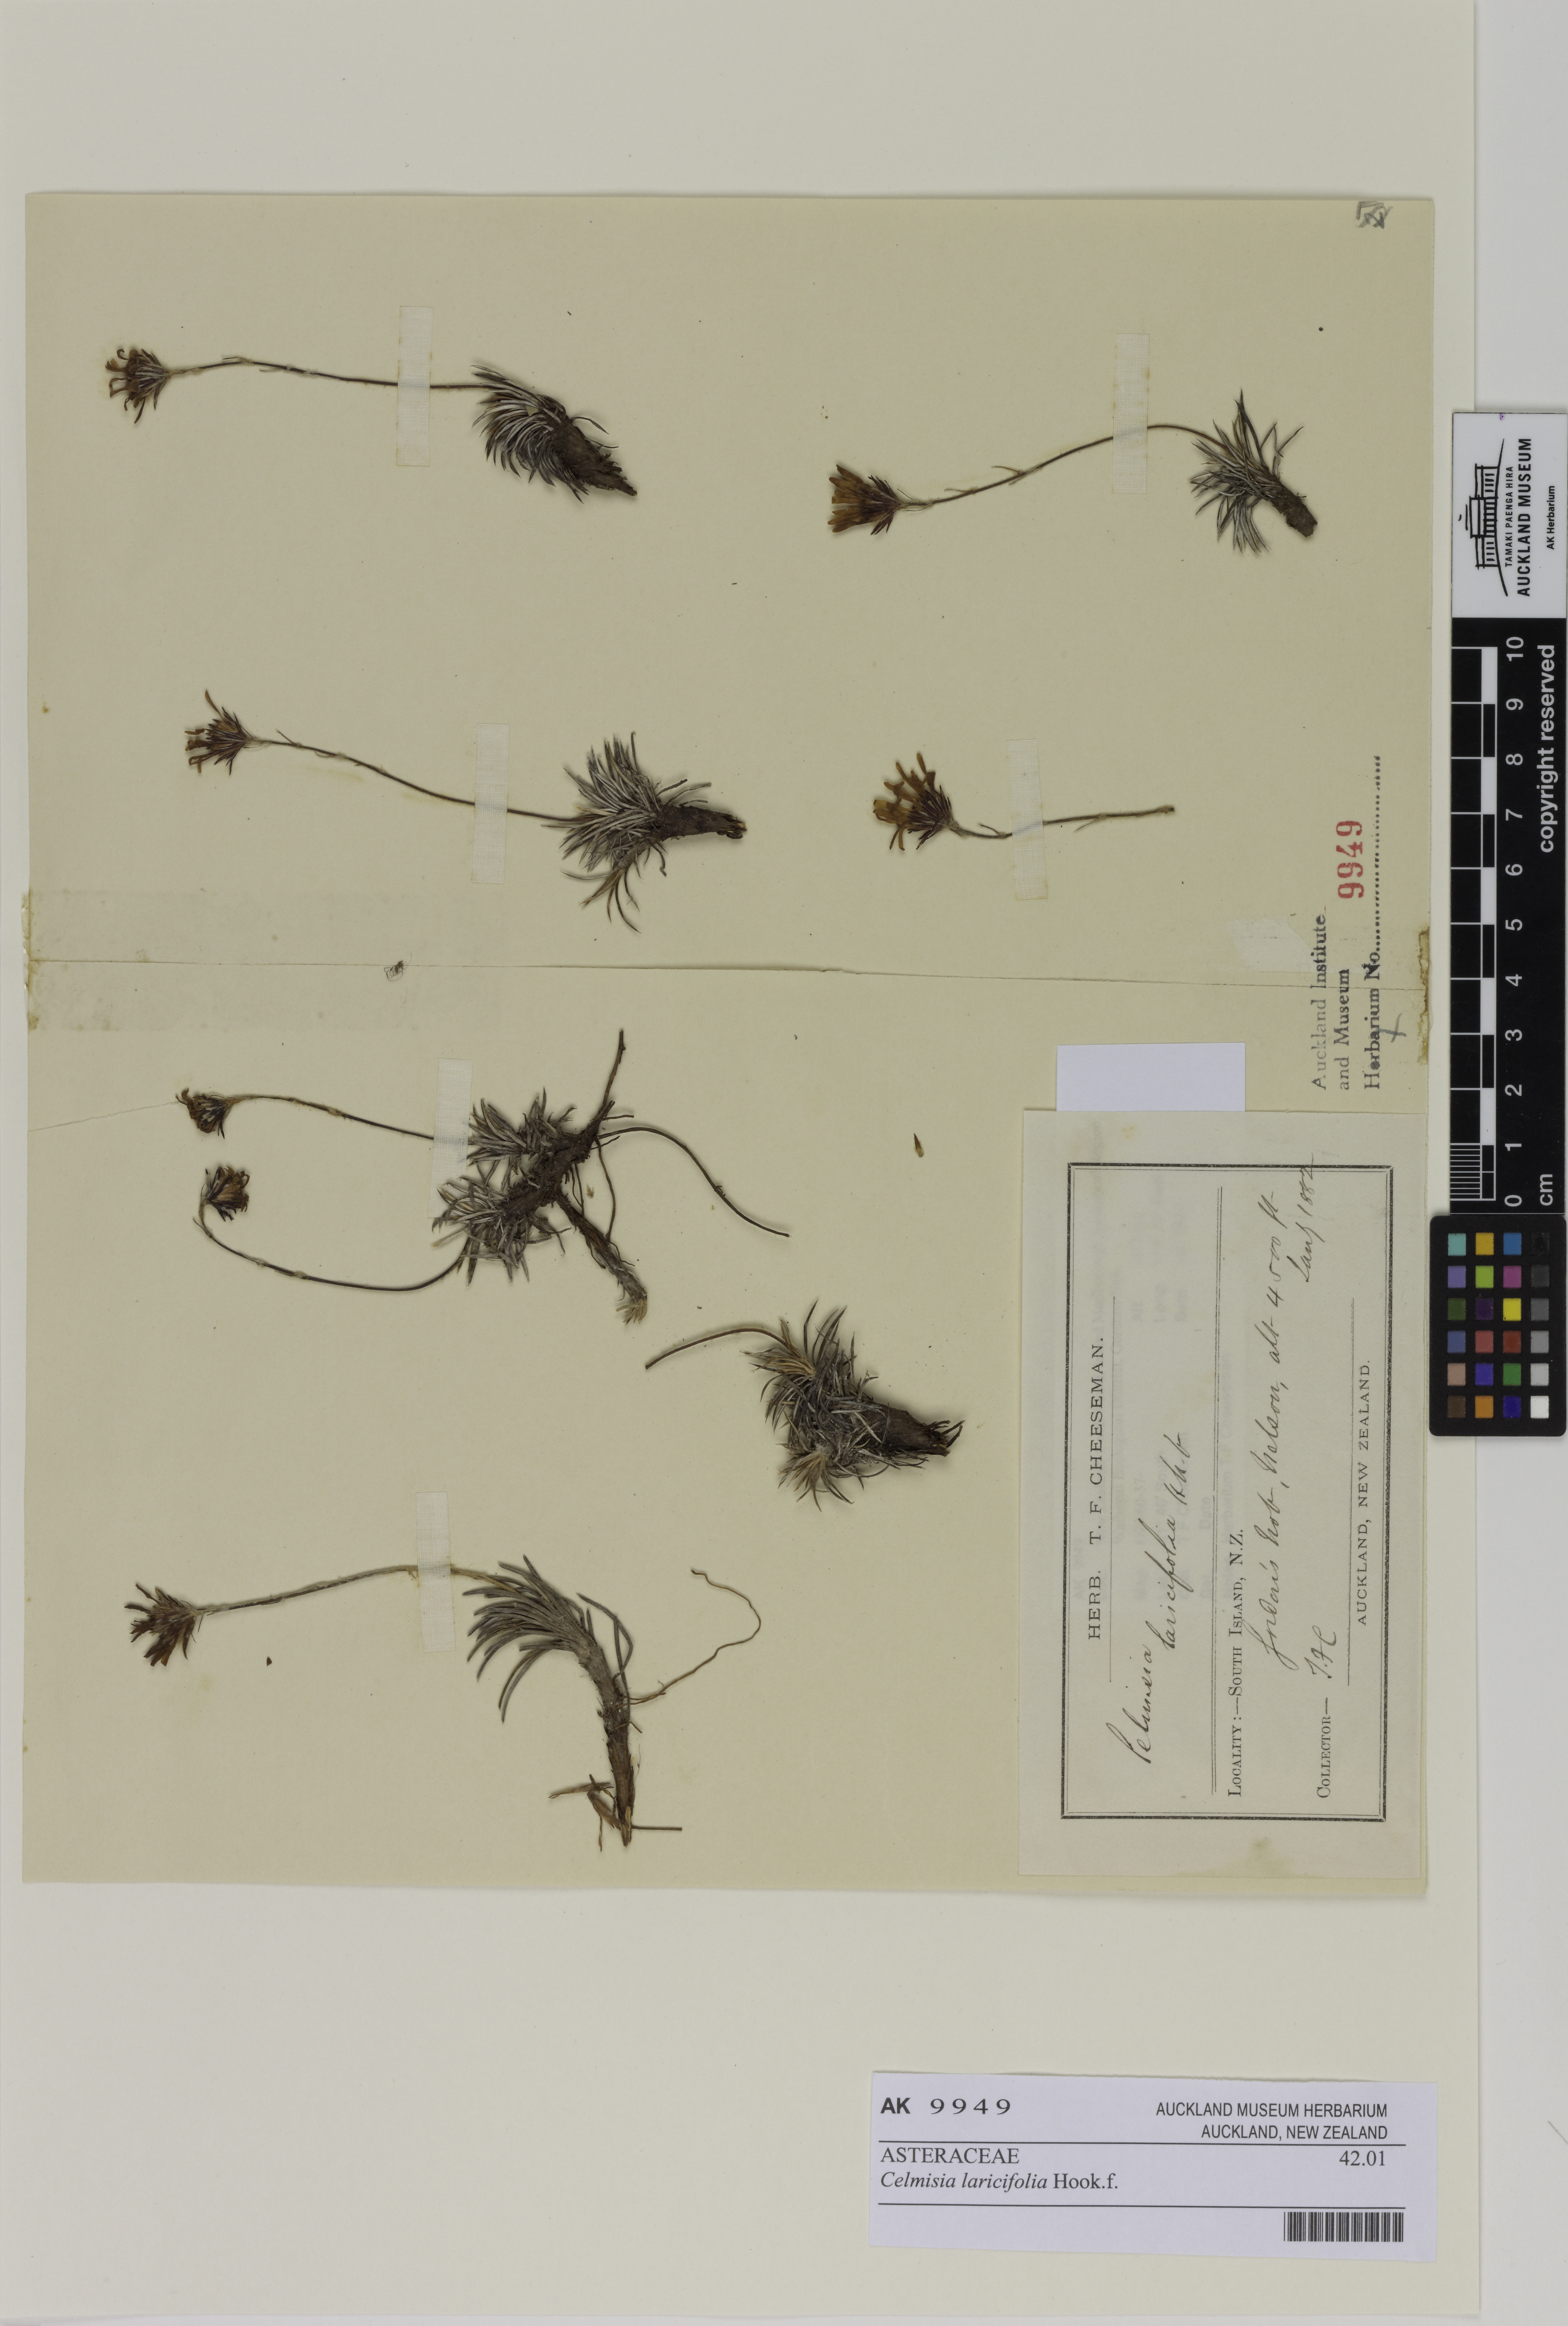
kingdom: Plantae
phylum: Tracheophyta
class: Magnoliopsida
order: Asterales
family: Asteraceae
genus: Celmisia
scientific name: Celmisia laricifolia
